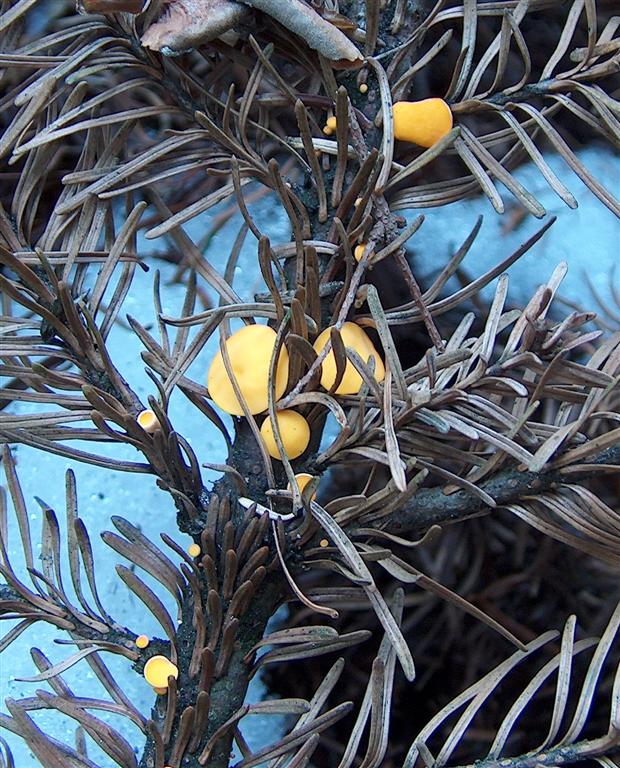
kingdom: Fungi
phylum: Ascomycota
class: Pezizomycetes
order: Pezizales
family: Sarcoscyphaceae
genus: Pithya
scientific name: Pithya vulgaris
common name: stor dukatbæger
